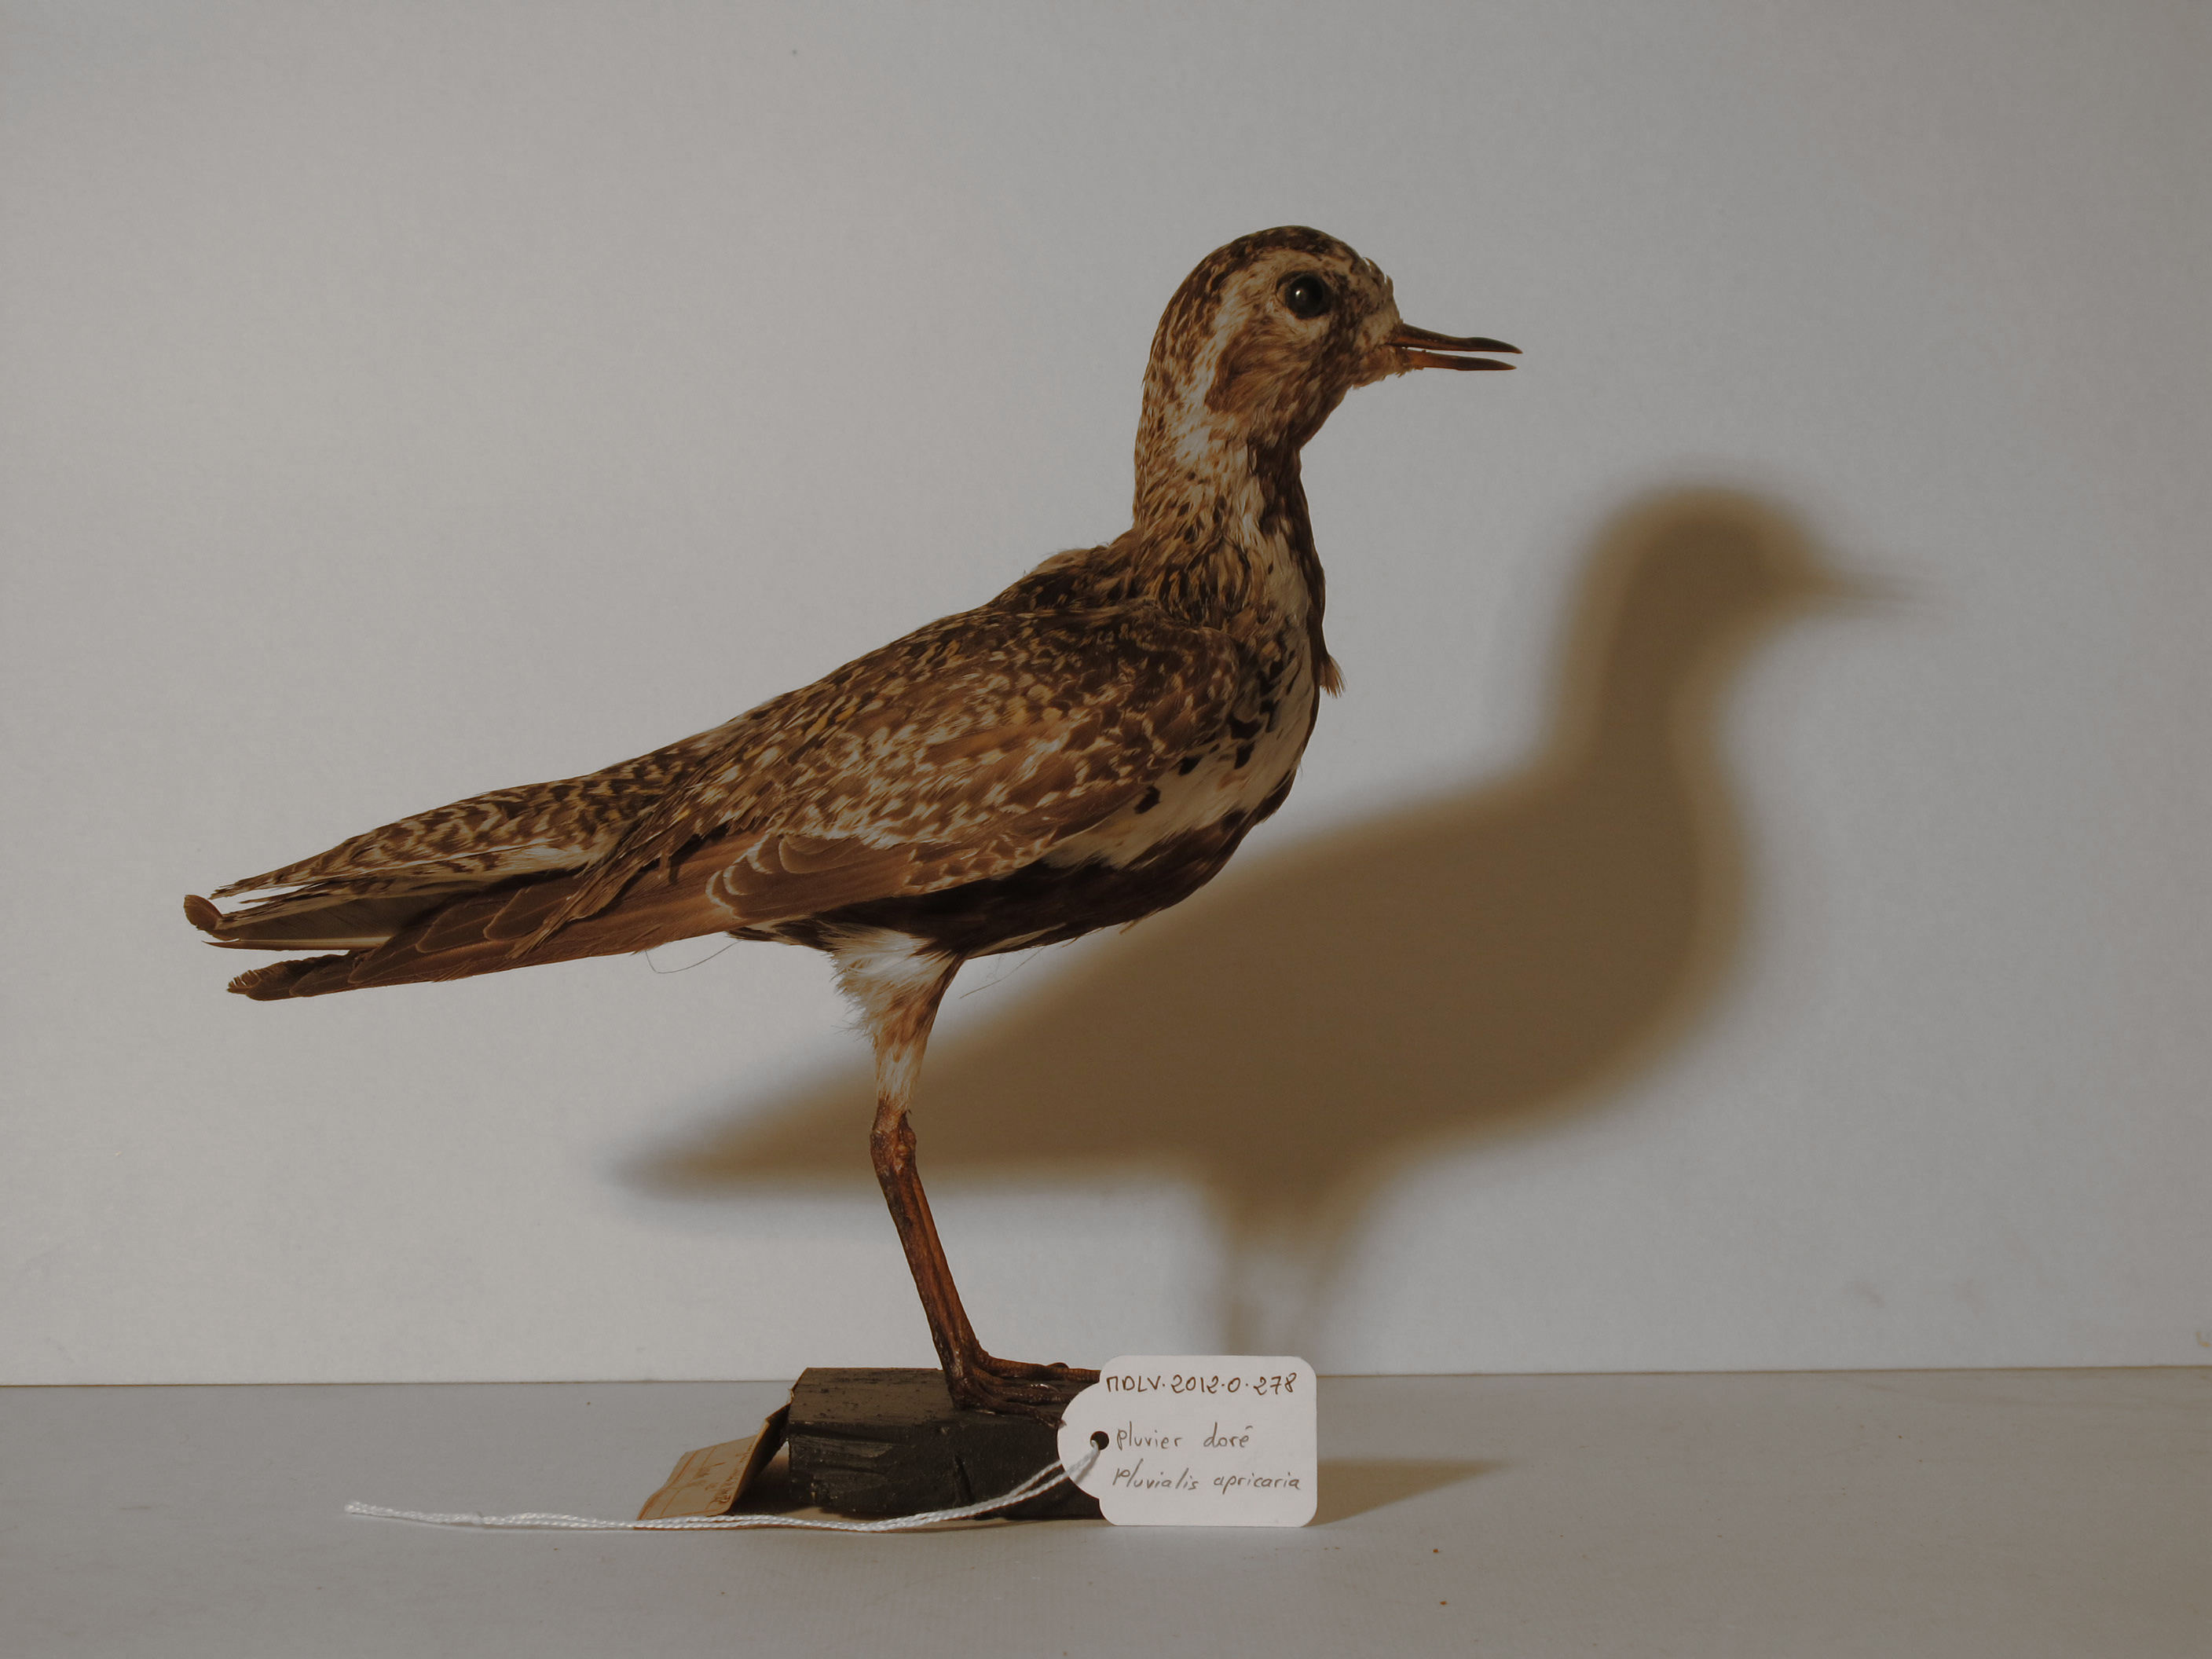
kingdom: Animalia
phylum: Chordata
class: Aves
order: Charadriiformes
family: Charadriidae
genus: Pluvialis
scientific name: Pluvialis apricaria
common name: Eurasian Golden Plover
